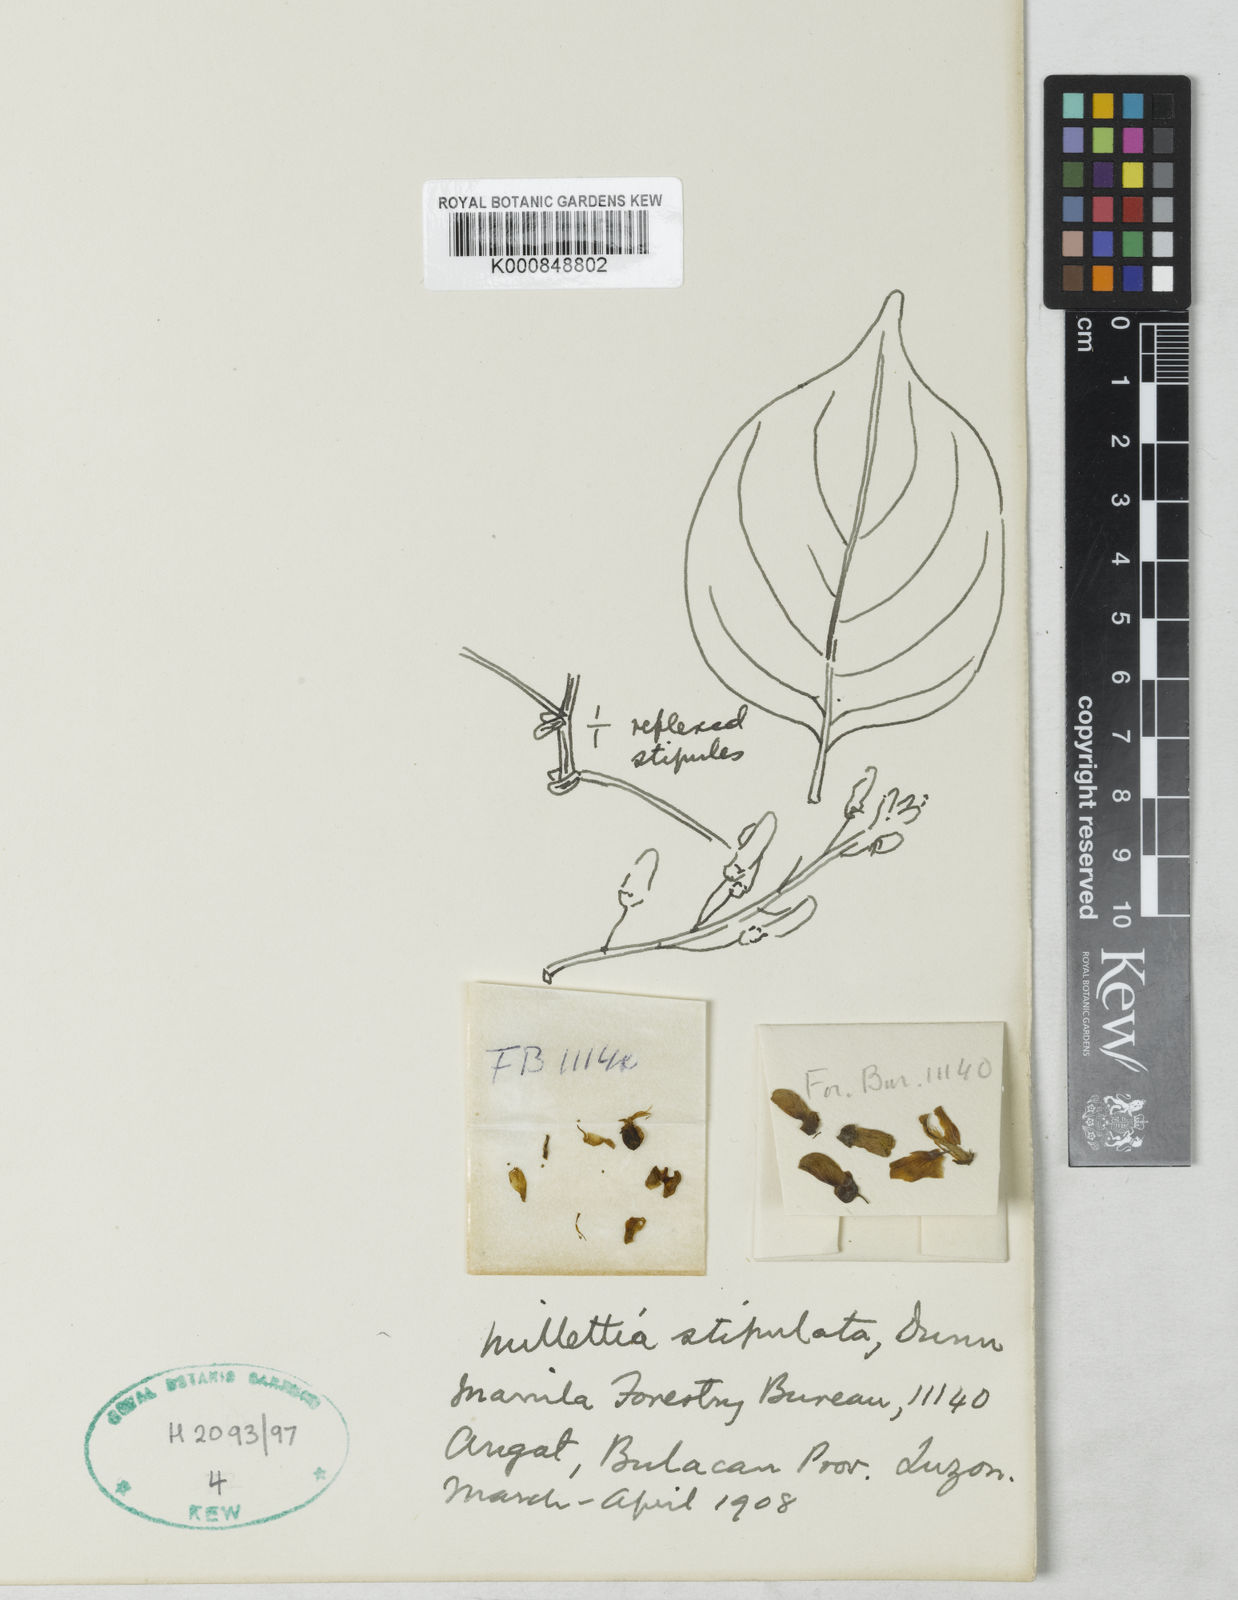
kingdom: Plantae
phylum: Tracheophyta
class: Magnoliopsida
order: Fabales
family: Fabaceae
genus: Millettia
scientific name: Millettia stipulata
